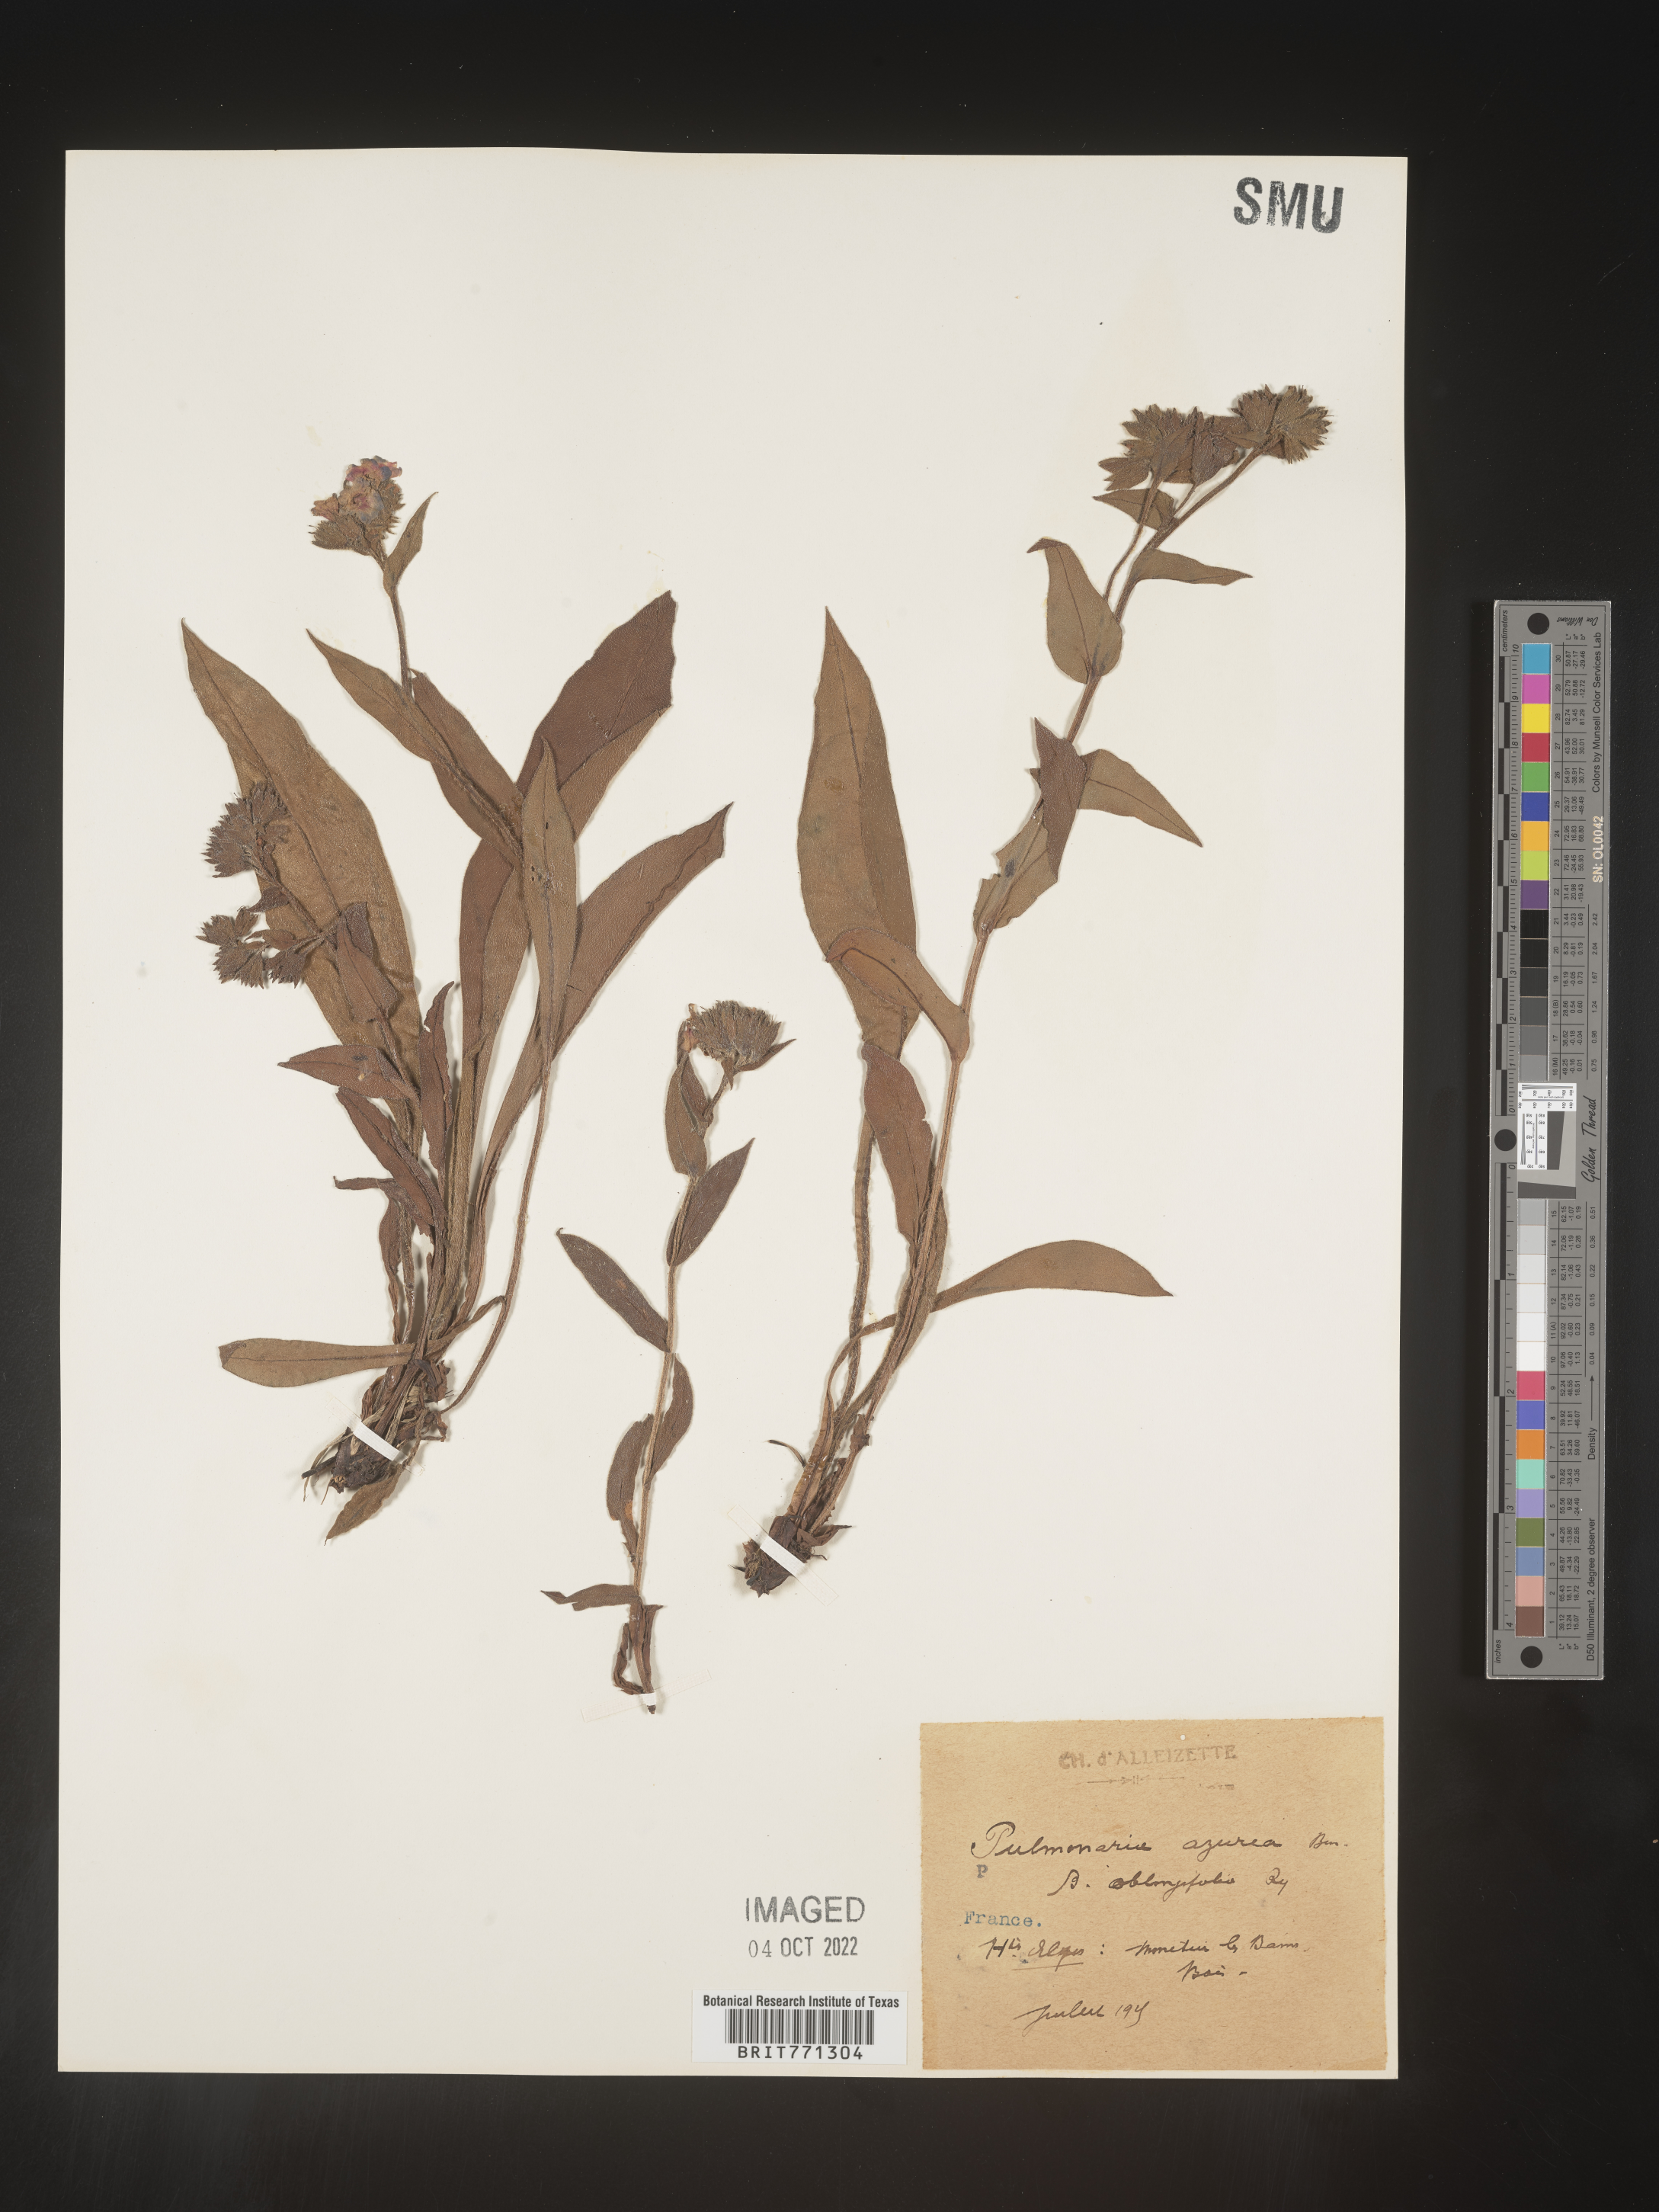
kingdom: Plantae
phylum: Tracheophyta
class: Magnoliopsida
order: Boraginales
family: Boraginaceae
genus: Pulmonaria
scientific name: Pulmonaria
